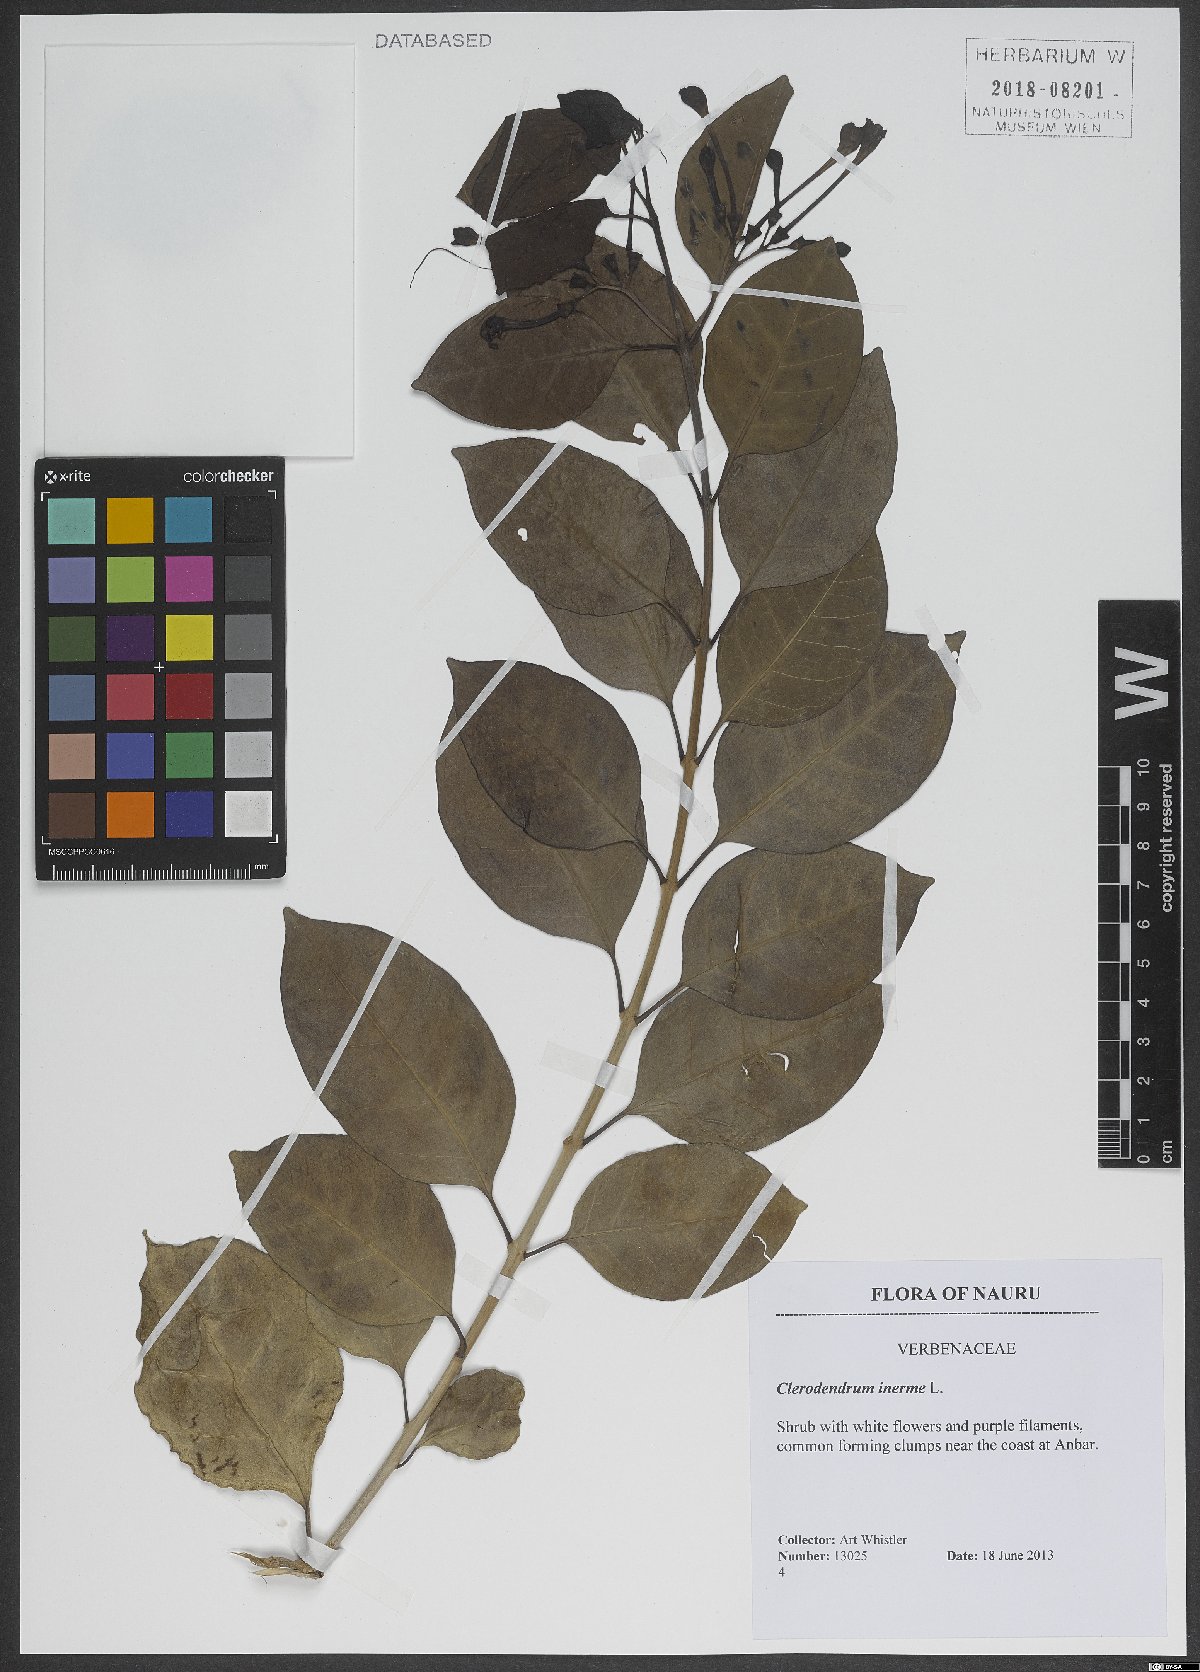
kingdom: Plantae
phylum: Tracheophyta
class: Magnoliopsida
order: Lamiales
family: Lamiaceae
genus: Volkameria
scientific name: Volkameria inermis
